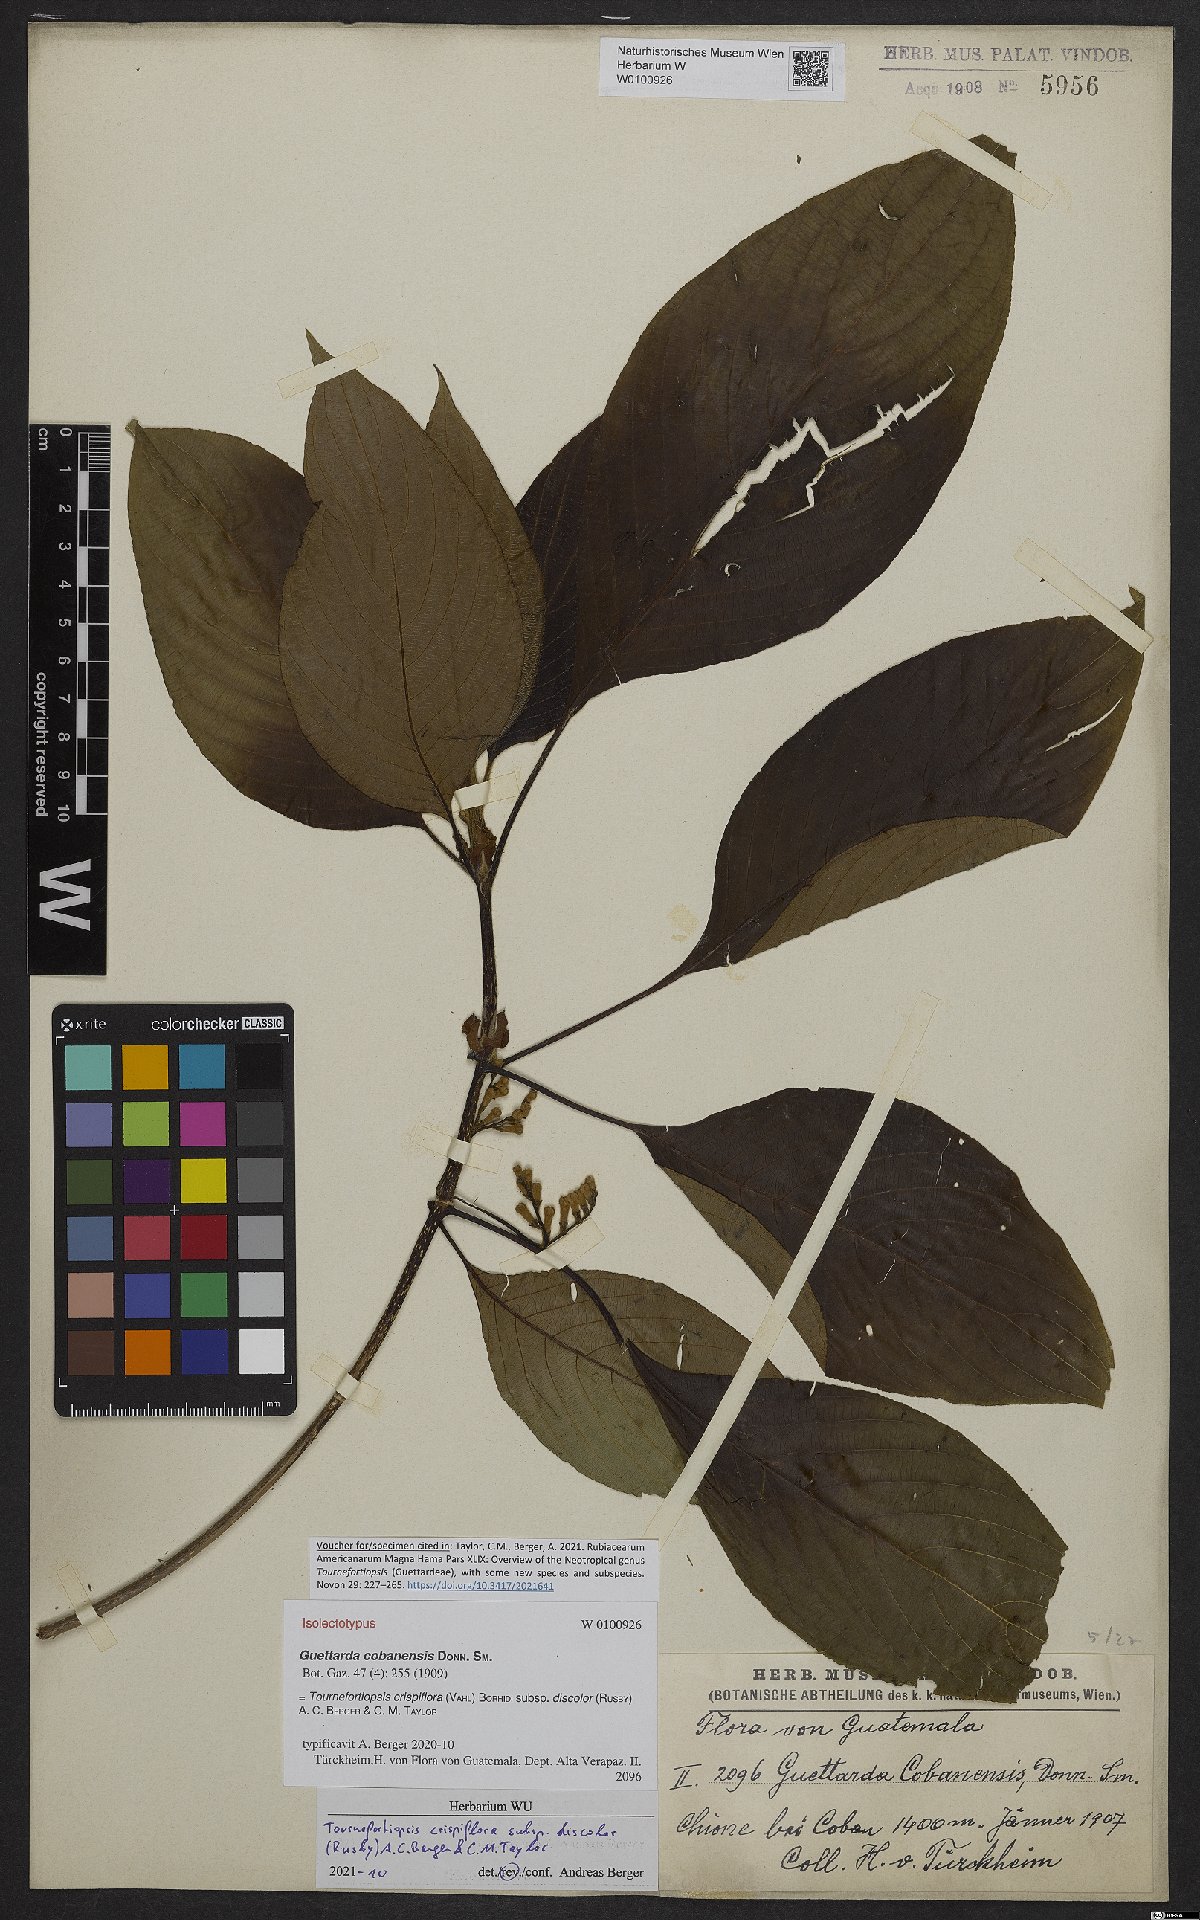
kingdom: Plantae
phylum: Tracheophyta
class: Magnoliopsida
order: Gentianales
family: Rubiaceae
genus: Tournefortiopsis
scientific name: Tournefortiopsis crispiflora
